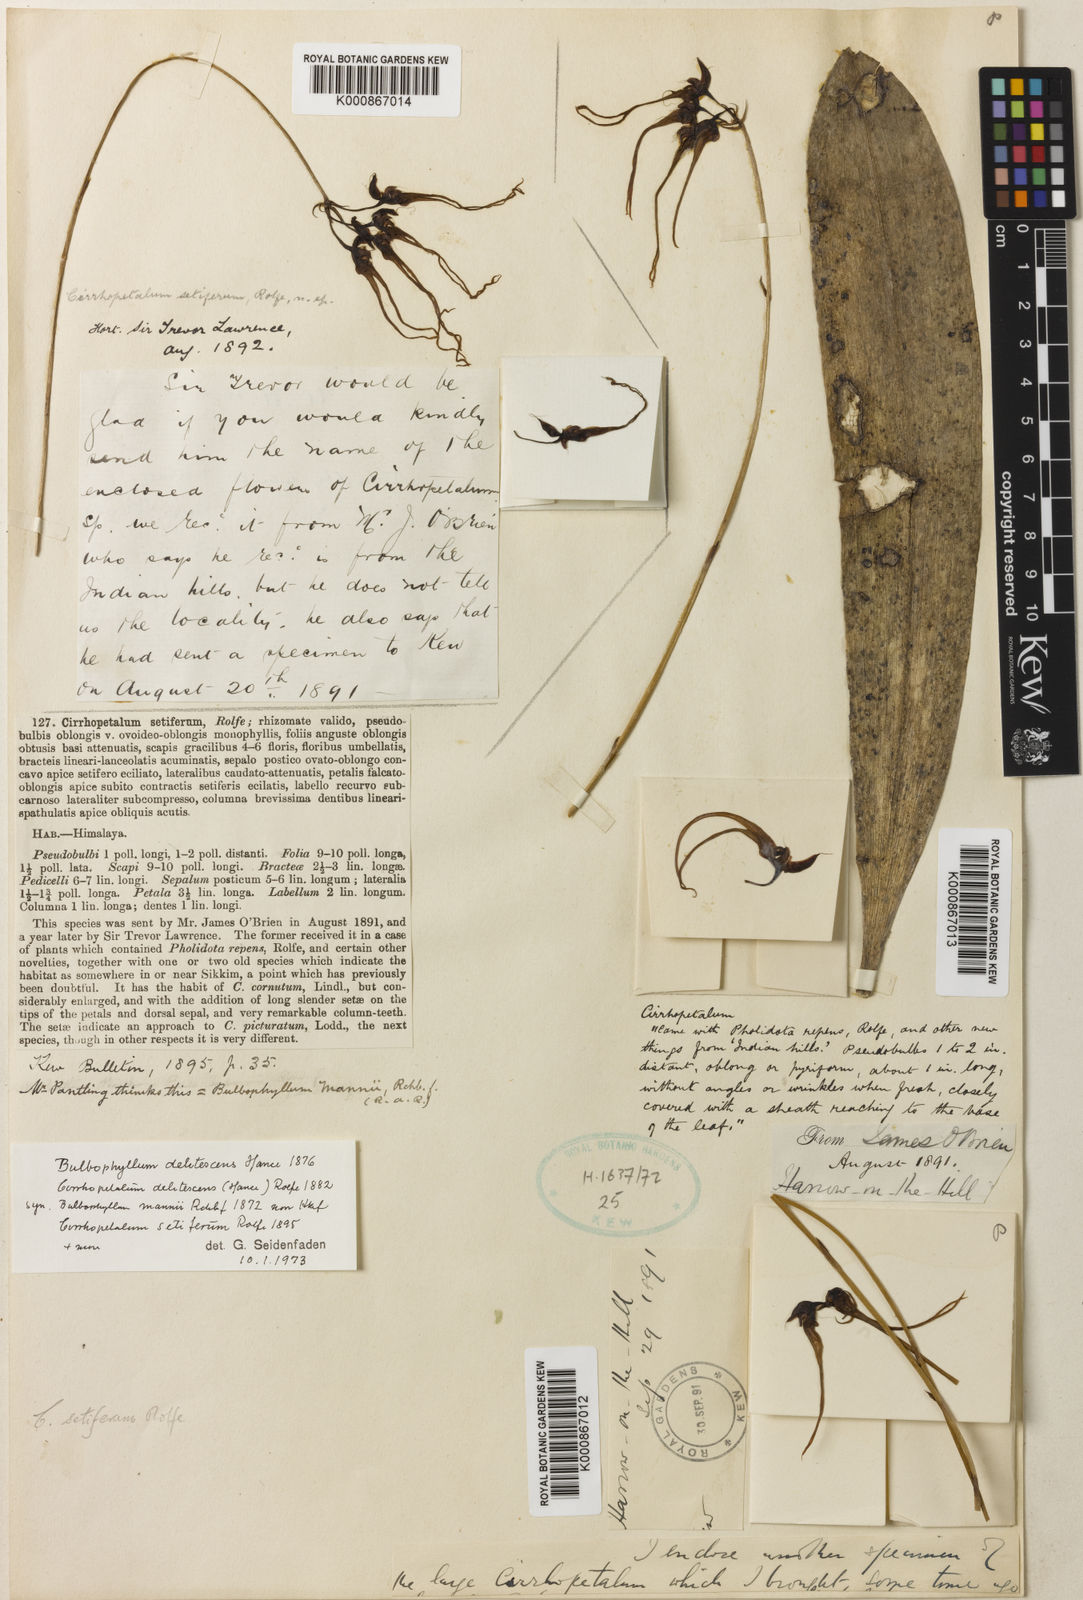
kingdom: Plantae
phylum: Tracheophyta
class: Liliopsida
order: Asparagales
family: Orchidaceae
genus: Bulbophyllum
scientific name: Bulbophyllum delitescens
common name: Straight twist orchid
